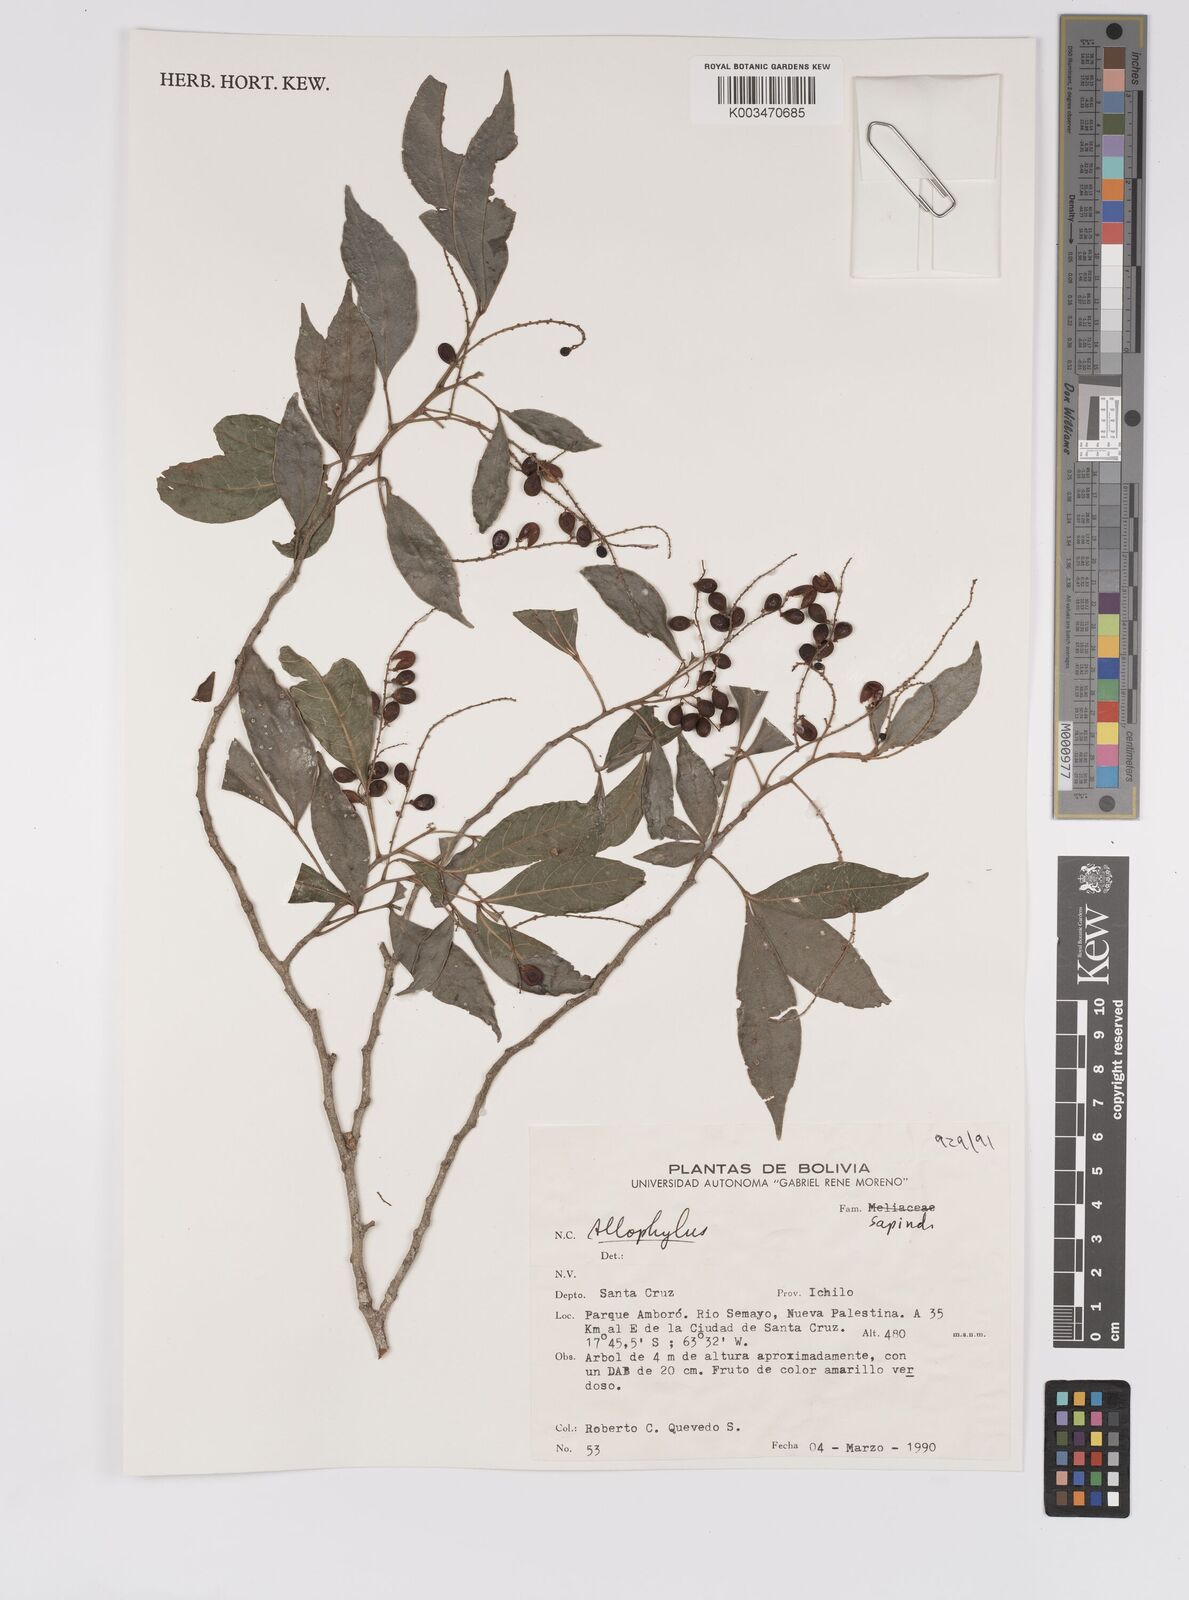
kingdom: Plantae
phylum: Tracheophyta
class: Magnoliopsida
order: Sapindales
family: Sapindaceae
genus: Allophylus
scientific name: Allophylus
